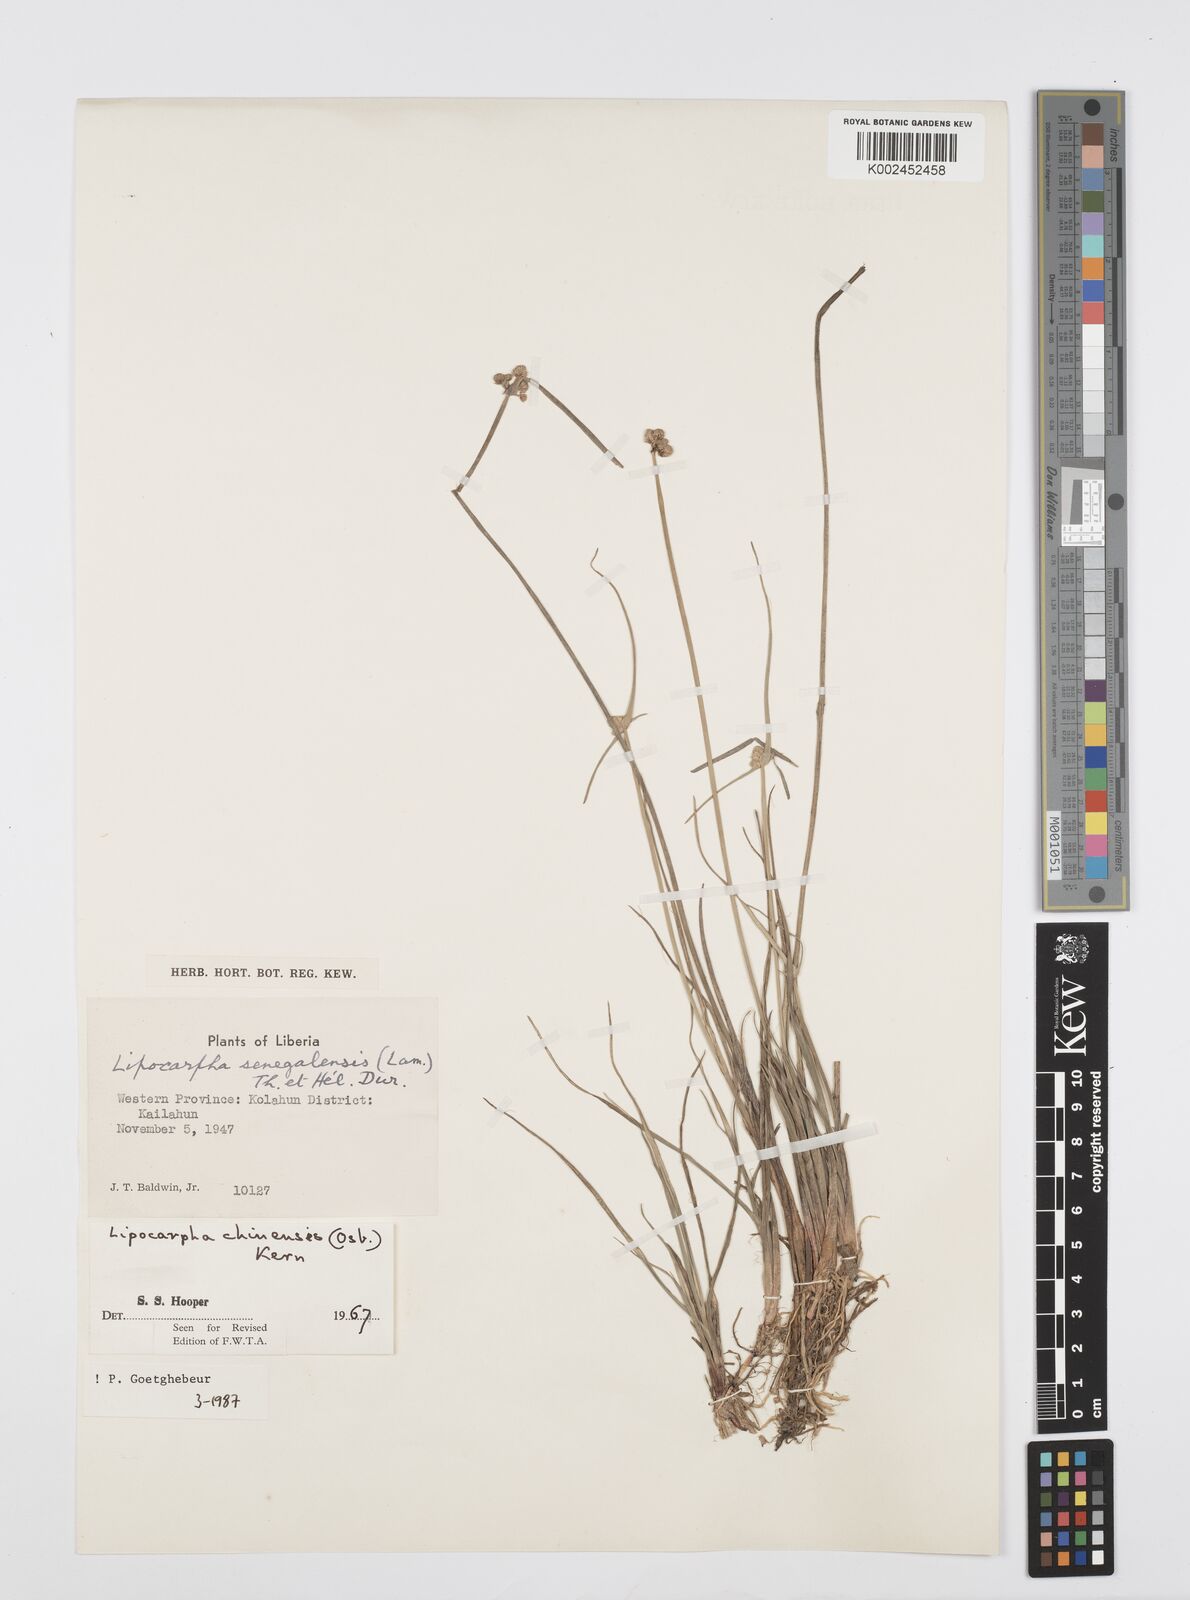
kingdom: Plantae
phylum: Tracheophyta
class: Liliopsida
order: Poales
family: Cyperaceae
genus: Cyperus
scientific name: Cyperus albescens
